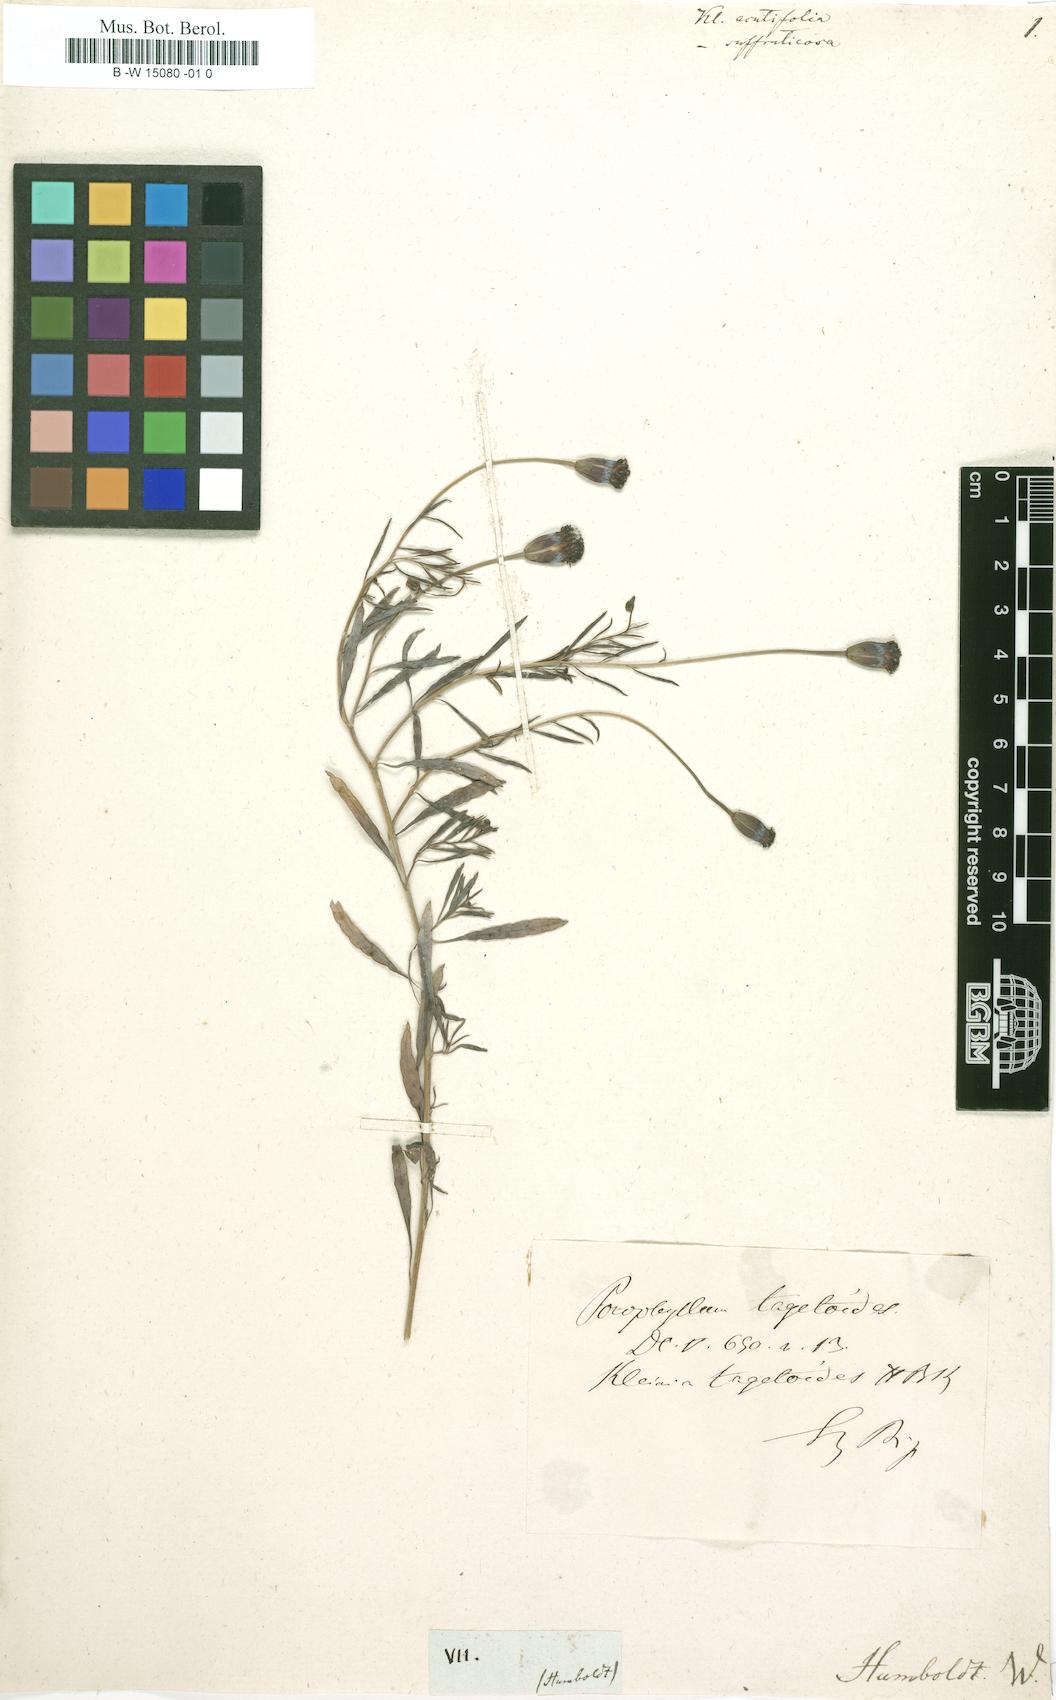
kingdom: Plantae
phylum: Tracheophyta
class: Magnoliopsida
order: Asterales
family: Asteraceae
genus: Kleinia
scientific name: Kleinia suffruticosa
